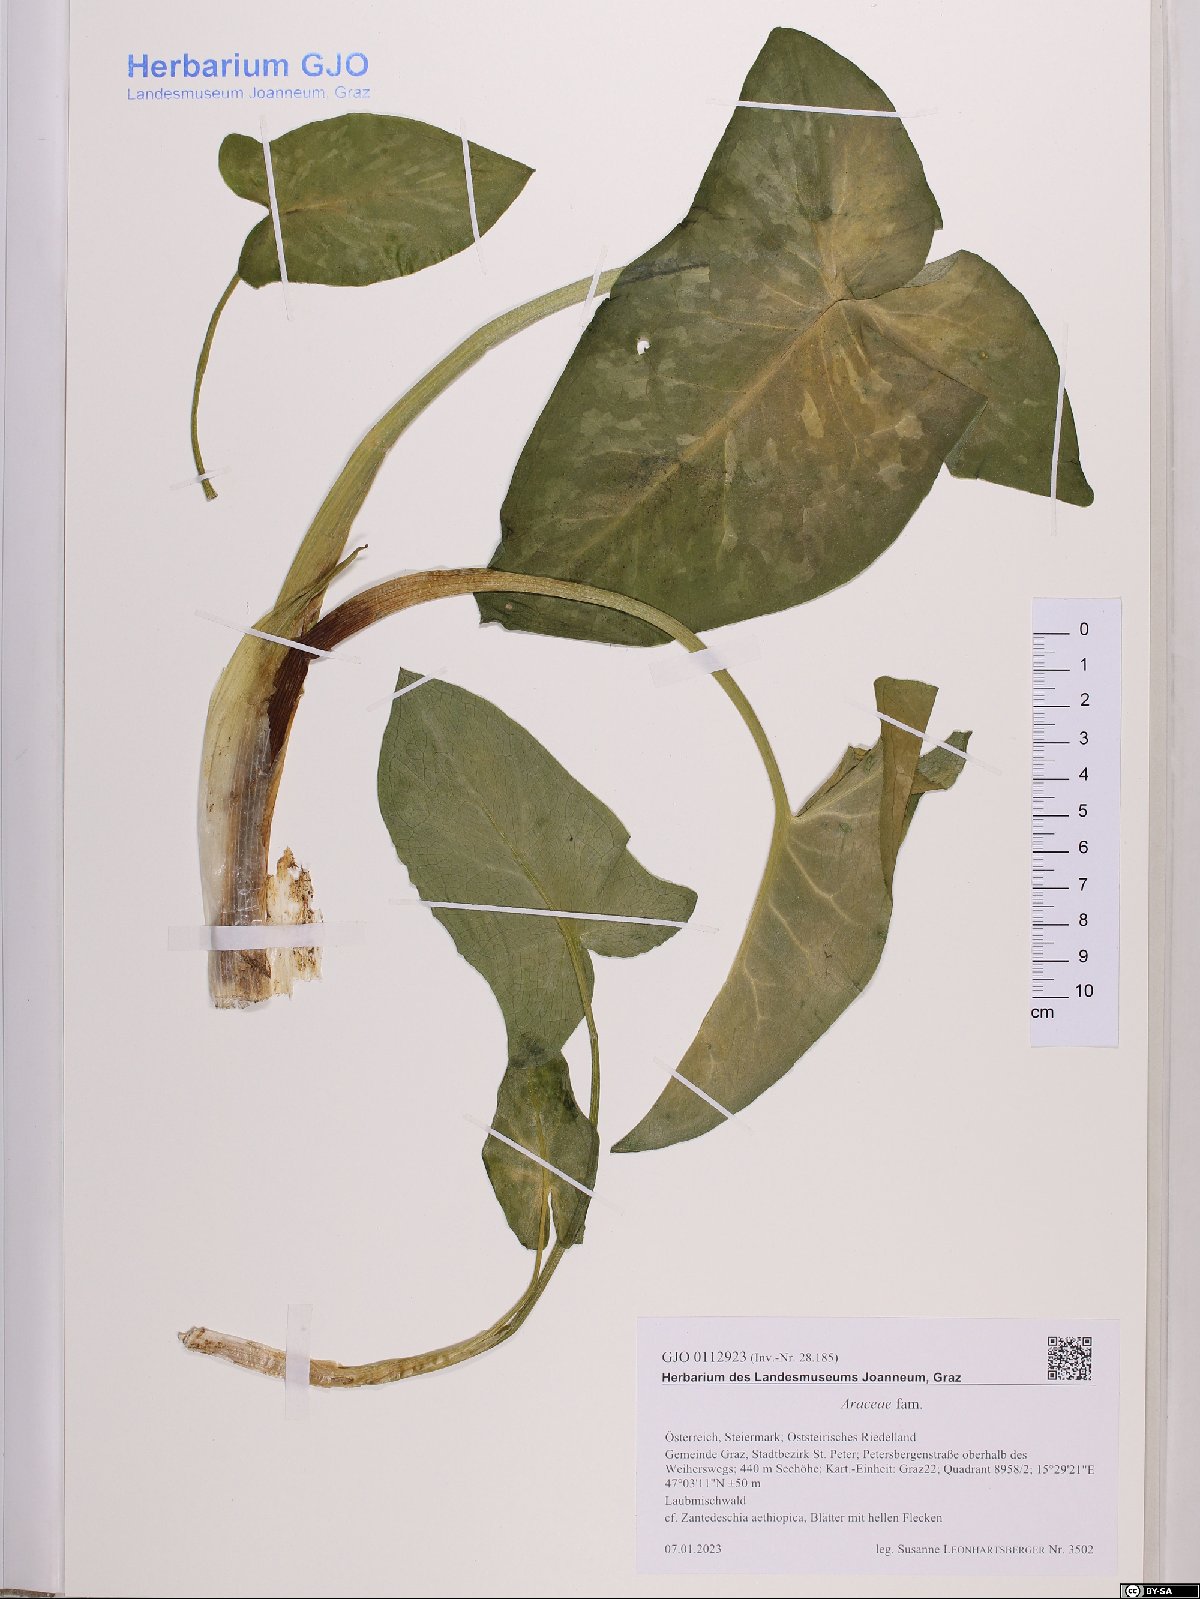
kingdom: Plantae
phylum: Tracheophyta
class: Liliopsida
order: Alismatales
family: Araceae
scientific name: Araceae
